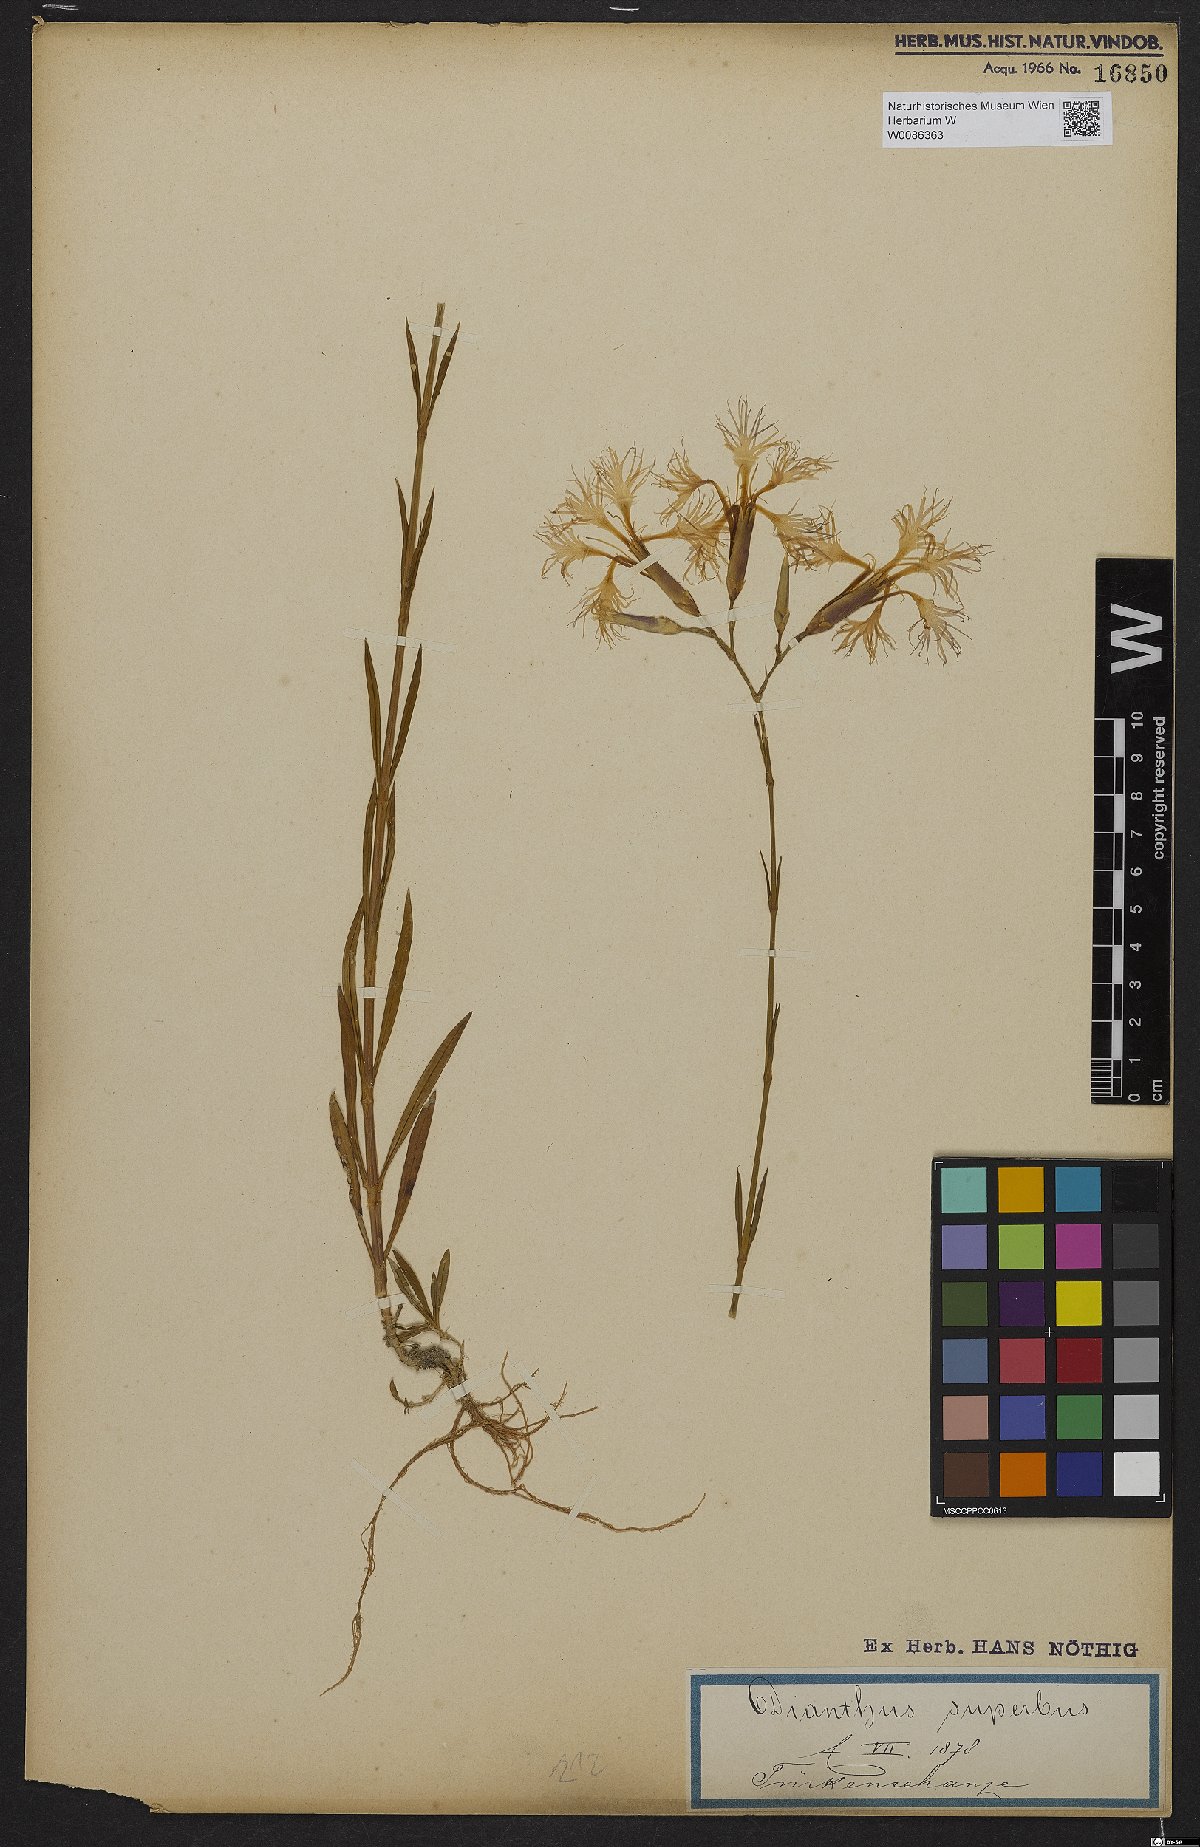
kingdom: Plantae
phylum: Tracheophyta
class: Magnoliopsida
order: Caryophyllales
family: Caryophyllaceae
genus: Dianthus
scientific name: Dianthus superbus
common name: Fringed pink
